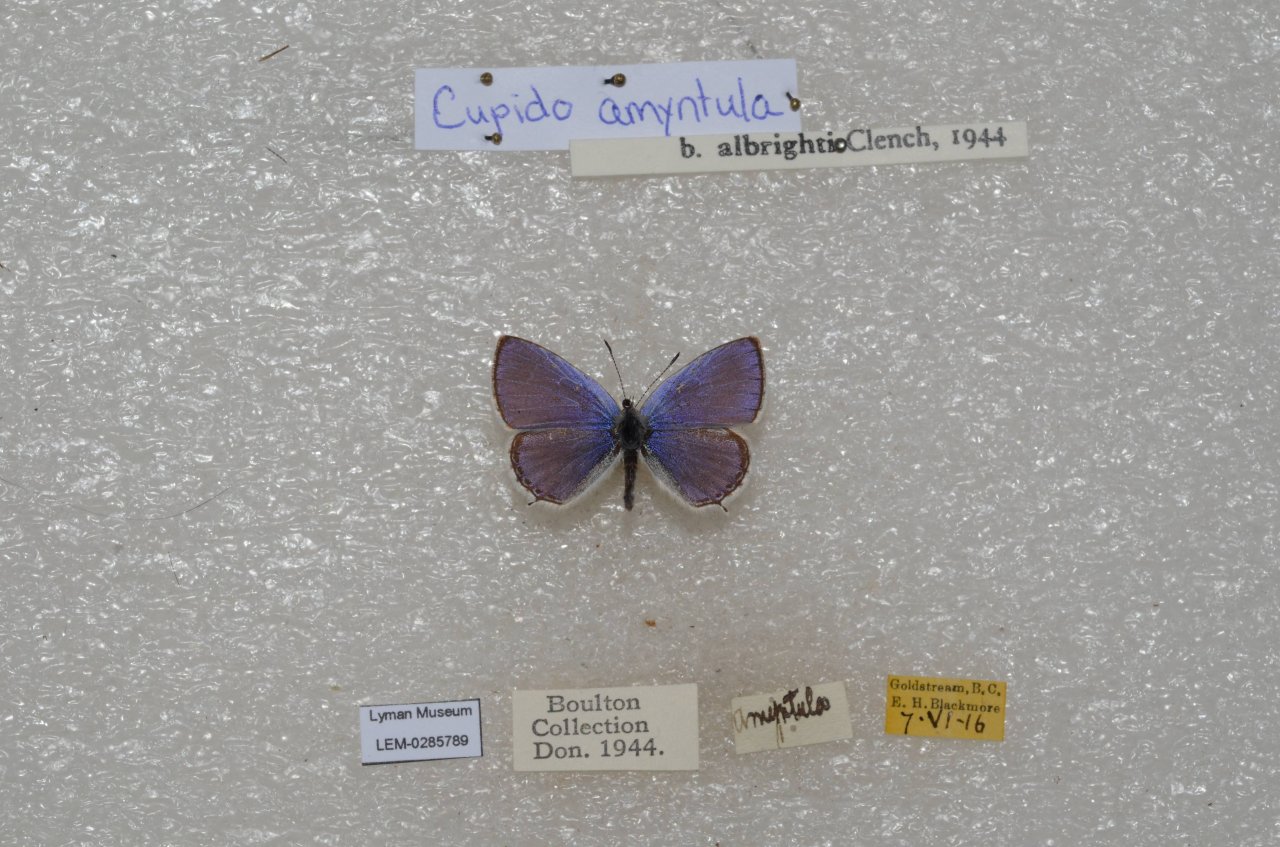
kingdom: Animalia
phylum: Arthropoda
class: Insecta
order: Lepidoptera
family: Lycaenidae
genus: Elkalyce
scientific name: Elkalyce amyntula
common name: Western Tailed-Blue
